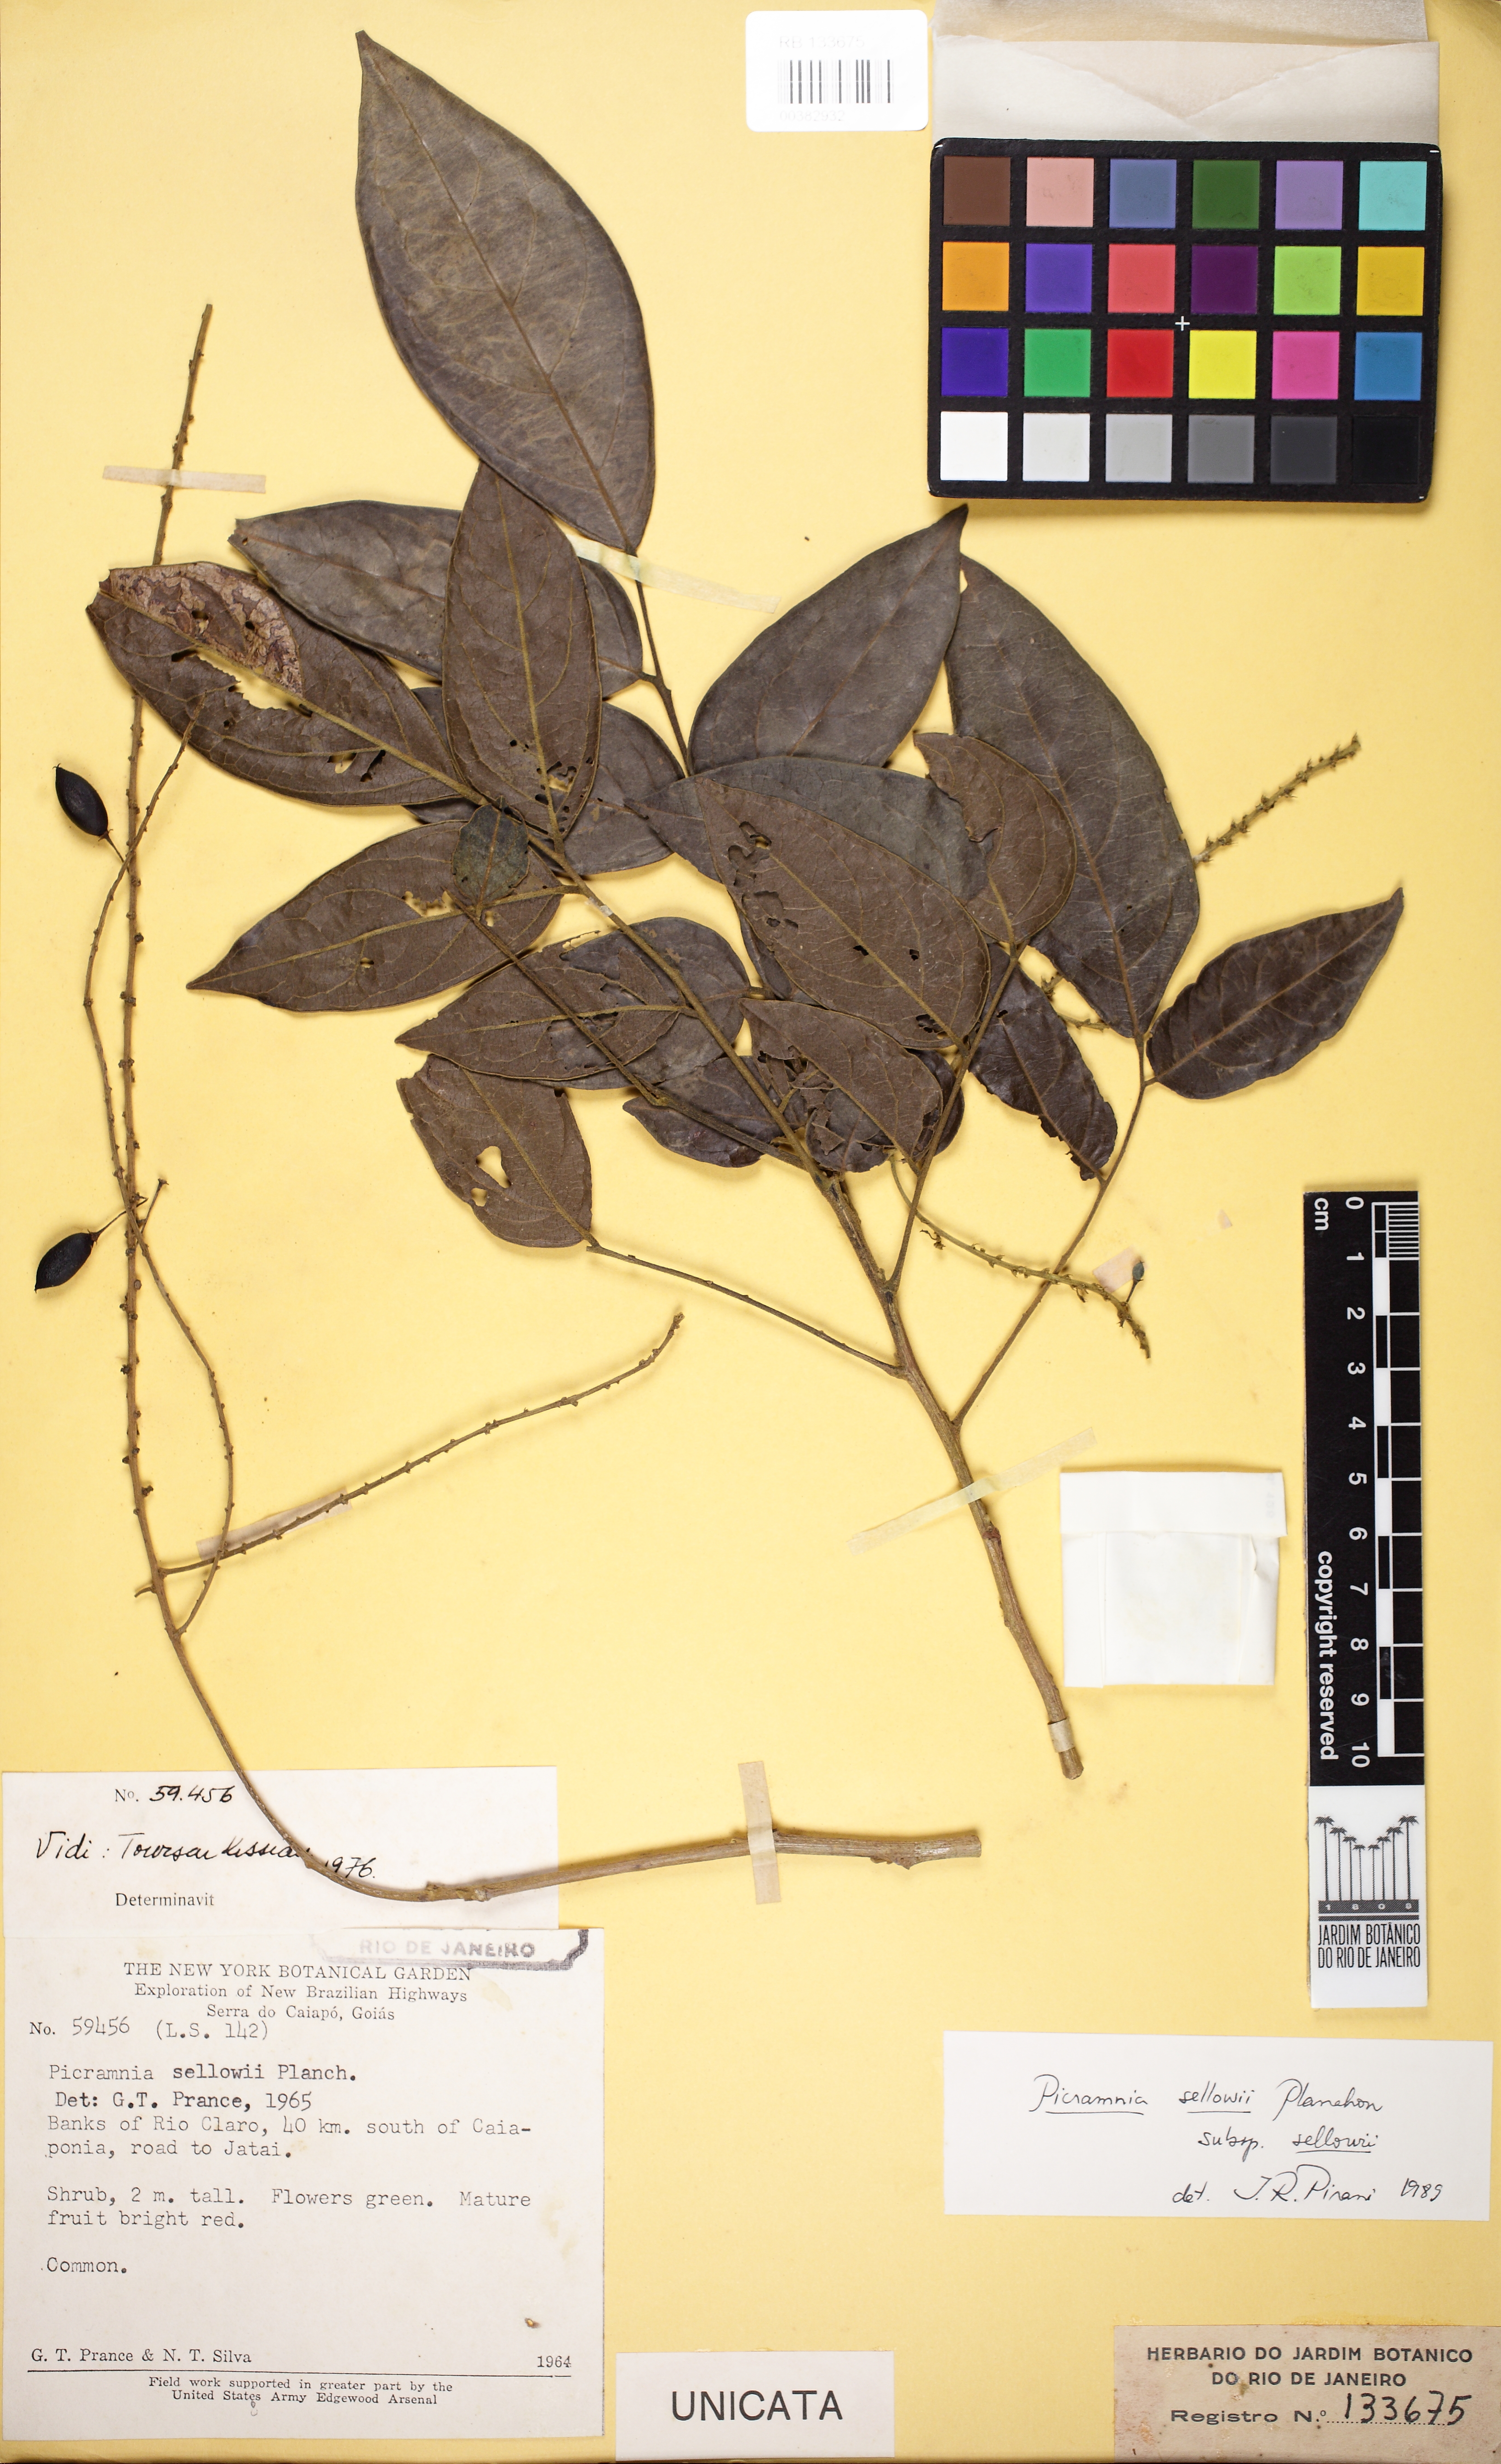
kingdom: Plantae
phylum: Tracheophyta
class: Magnoliopsida
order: Picramniales
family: Picramniaceae
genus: Picramnia
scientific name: Picramnia sellowii
